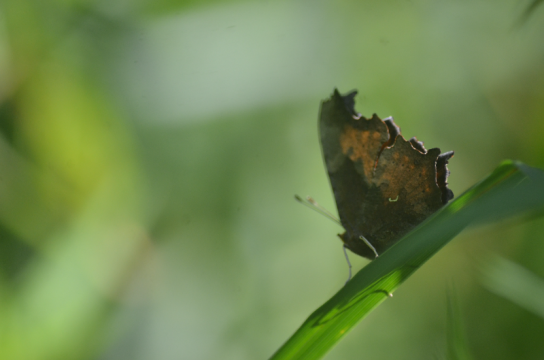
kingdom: Animalia
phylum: Arthropoda
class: Insecta
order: Lepidoptera
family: Nymphalidae
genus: Polygonia
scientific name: Polygonia progne
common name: Gray Comma
